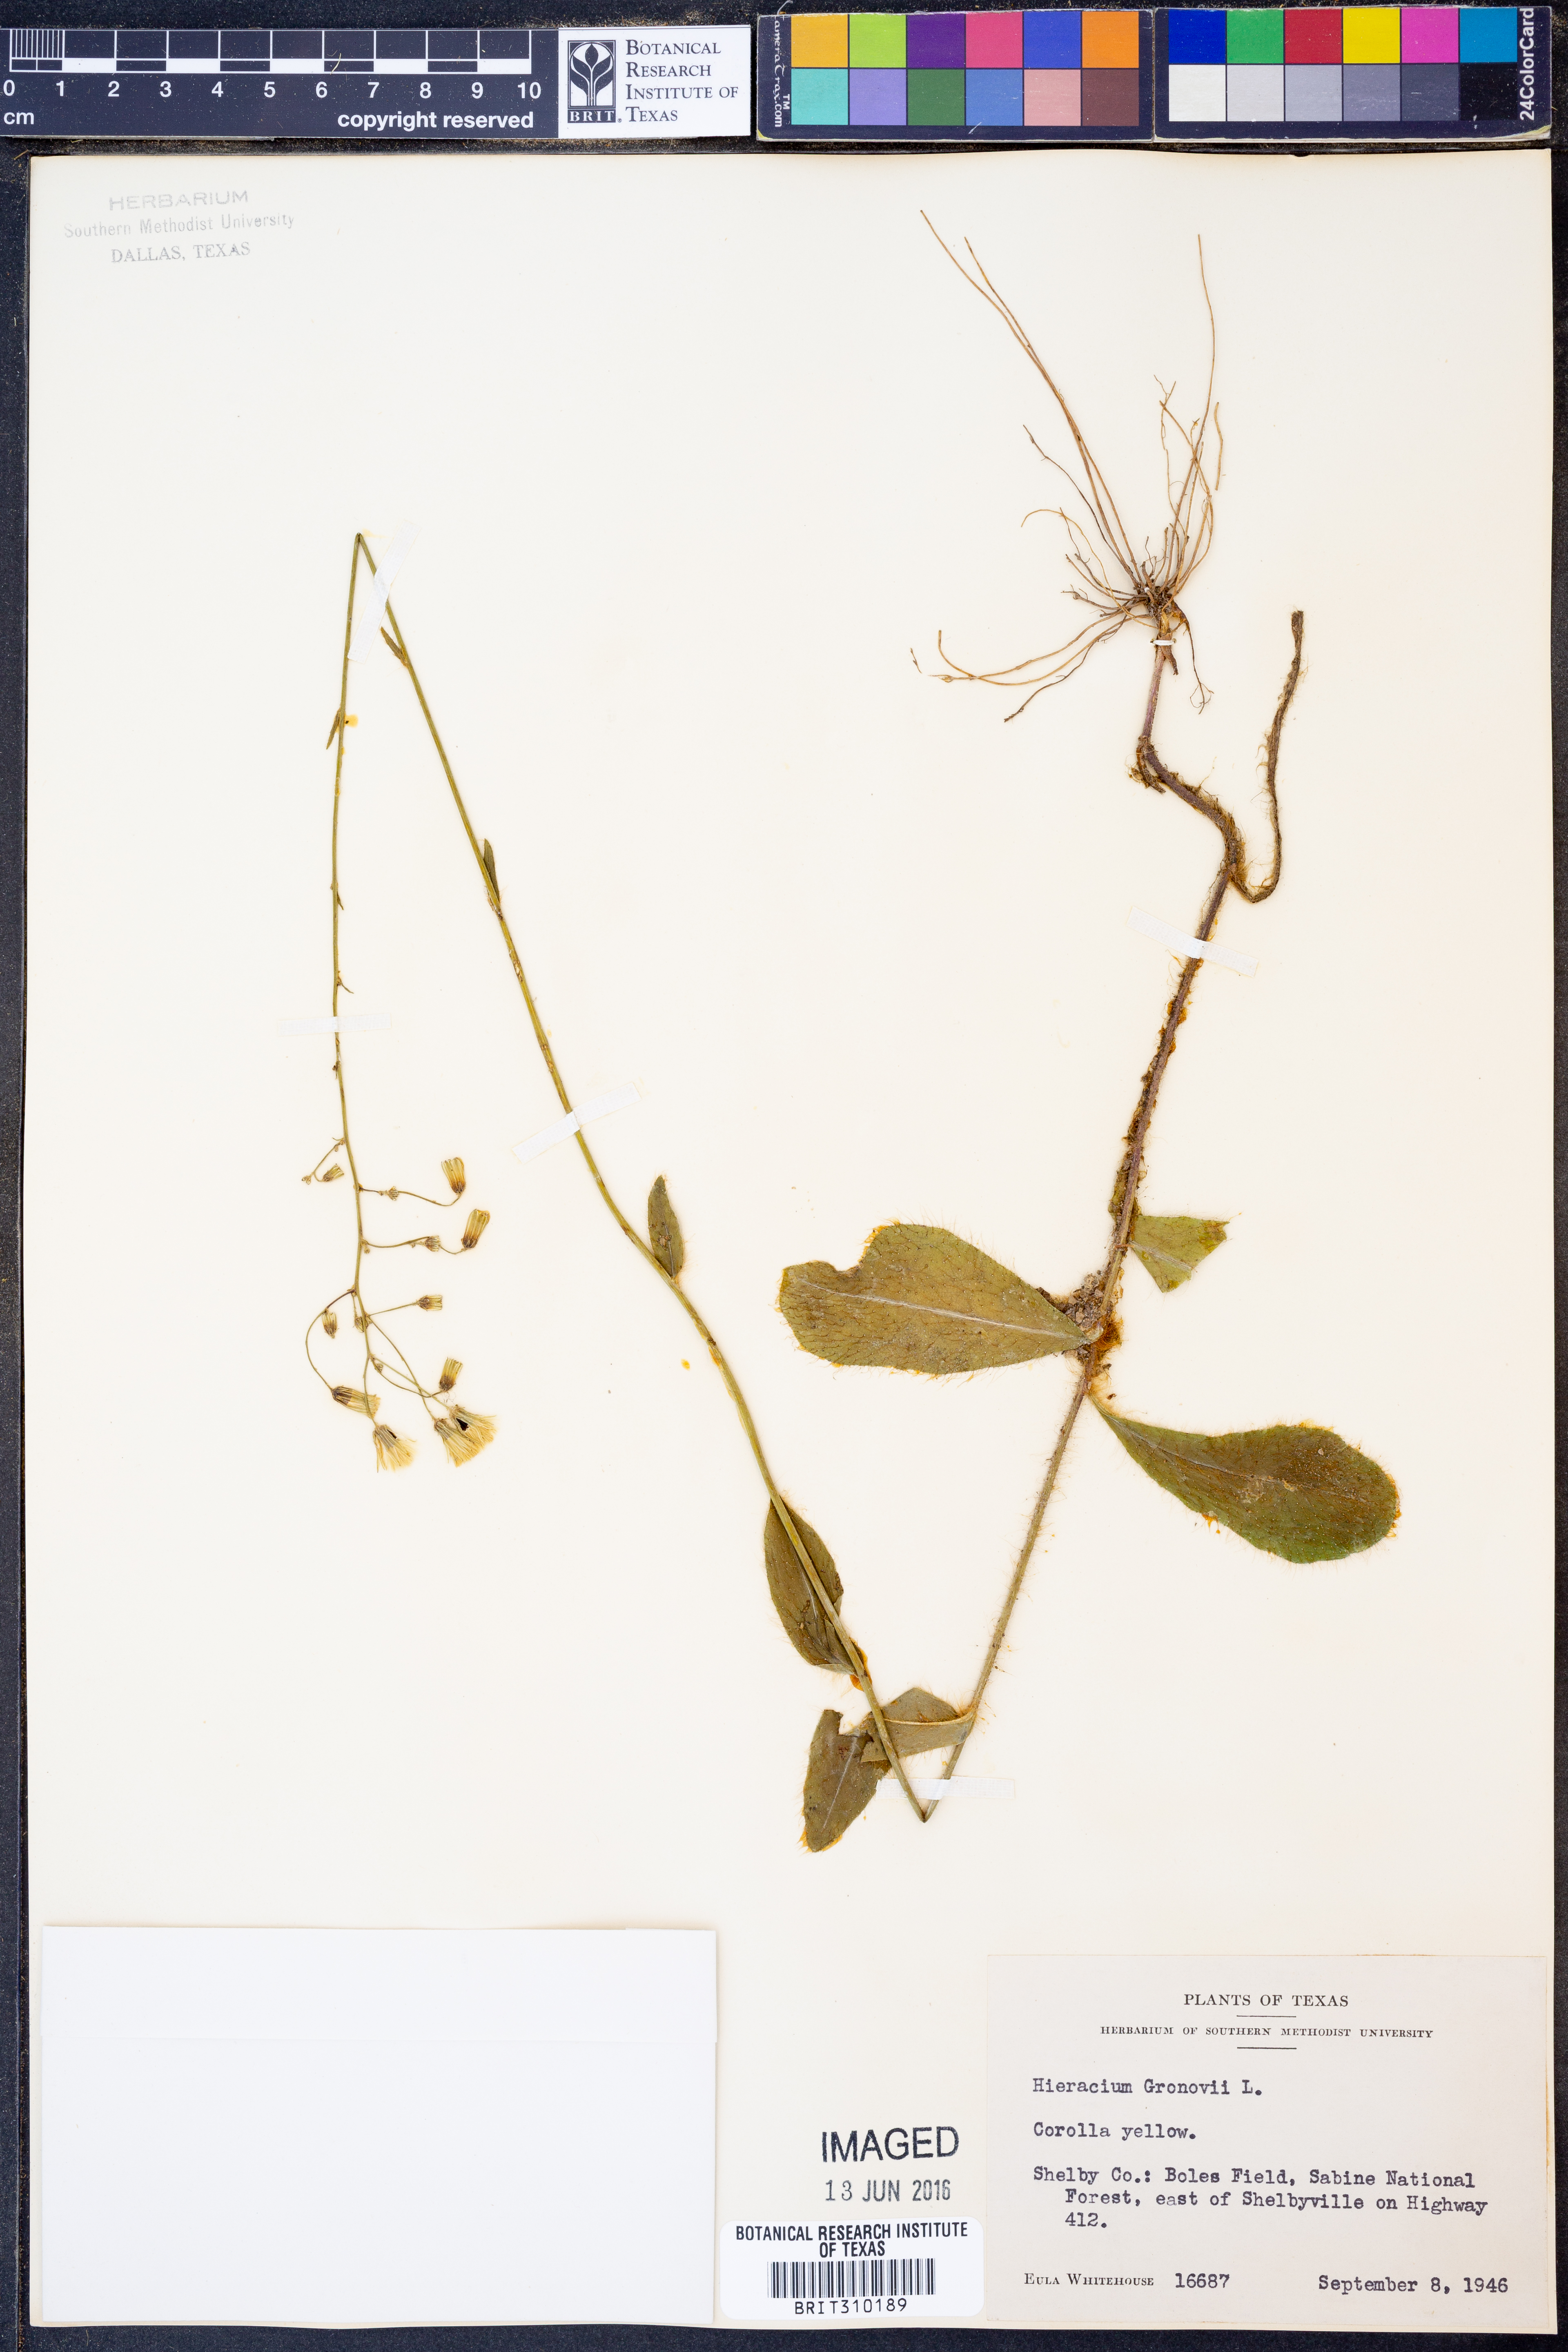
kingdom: Plantae
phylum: Tracheophyta
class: Magnoliopsida
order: Asterales
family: Asteraceae
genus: Hieracium
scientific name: Hieracium gronovii
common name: Beaked hawkweed
